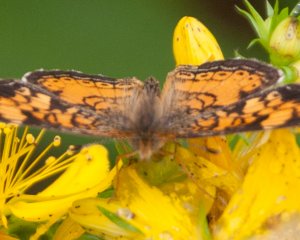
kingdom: Animalia
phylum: Arthropoda
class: Insecta
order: Lepidoptera
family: Nymphalidae
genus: Phyciodes
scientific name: Phyciodes tharos
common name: Pearl Crescent
